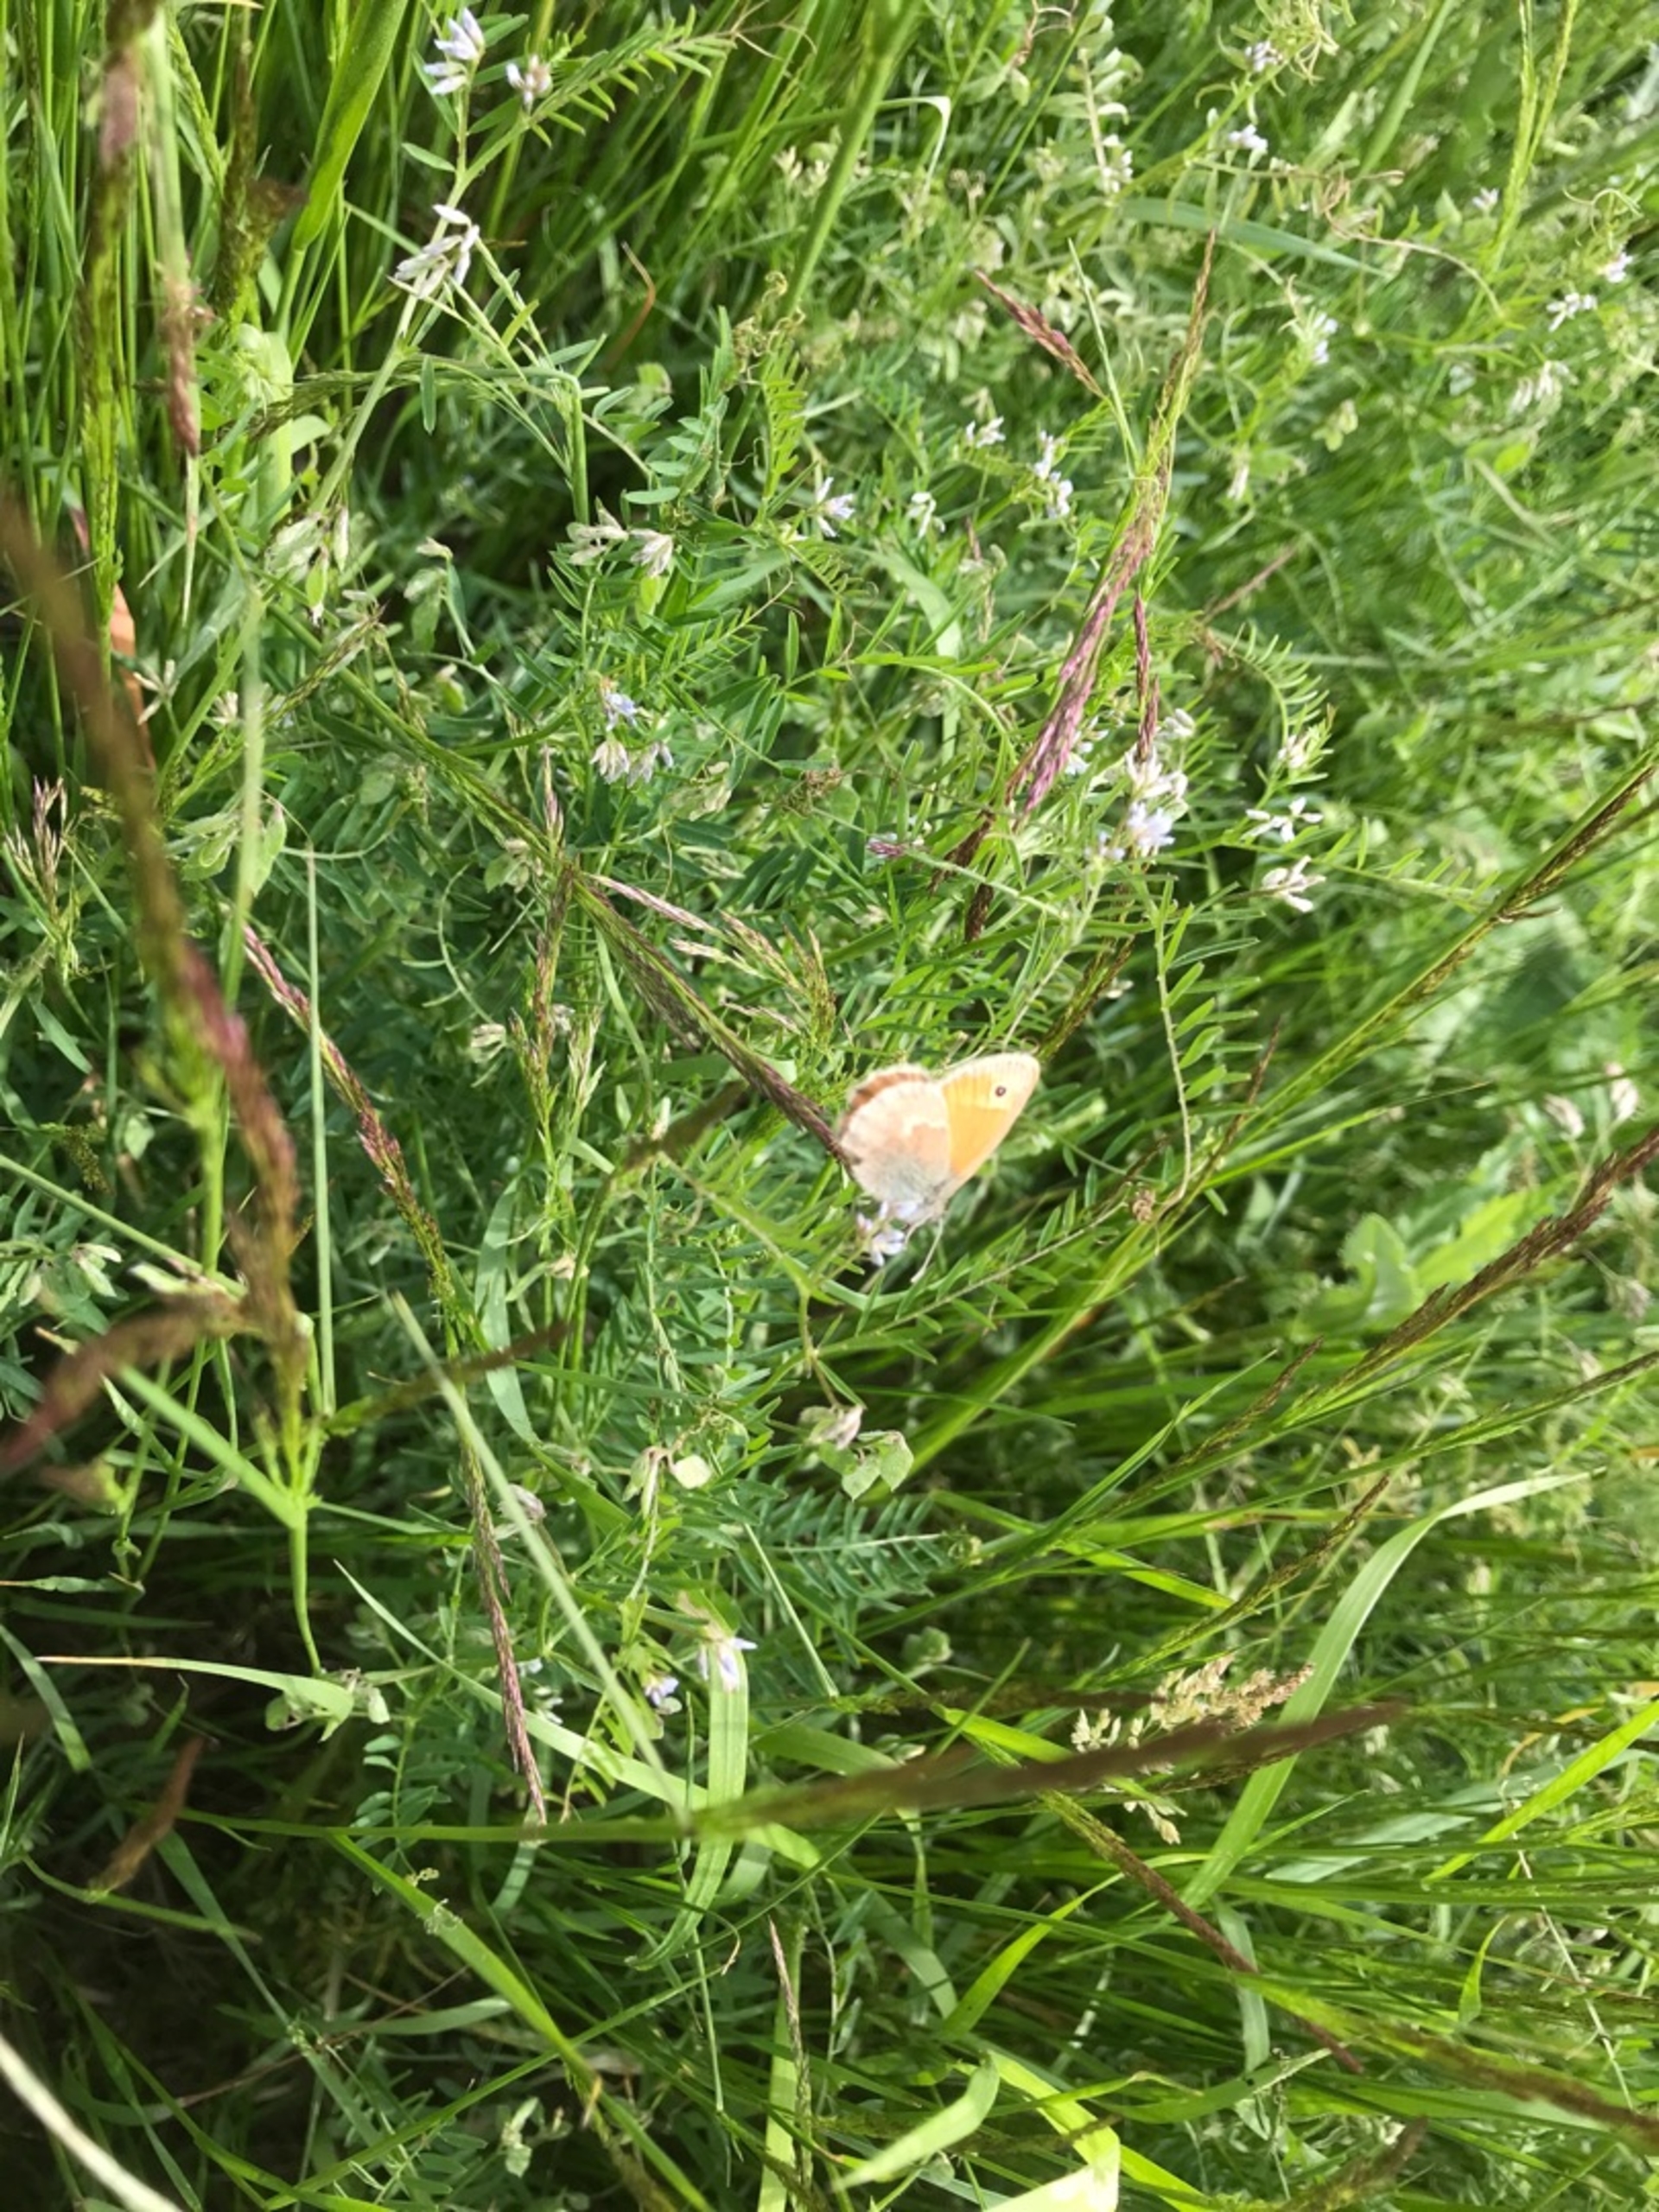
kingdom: Animalia
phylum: Arthropoda
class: Insecta
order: Lepidoptera
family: Nymphalidae
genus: Coenonympha
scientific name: Coenonympha pamphilus
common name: Okkergul randøje
